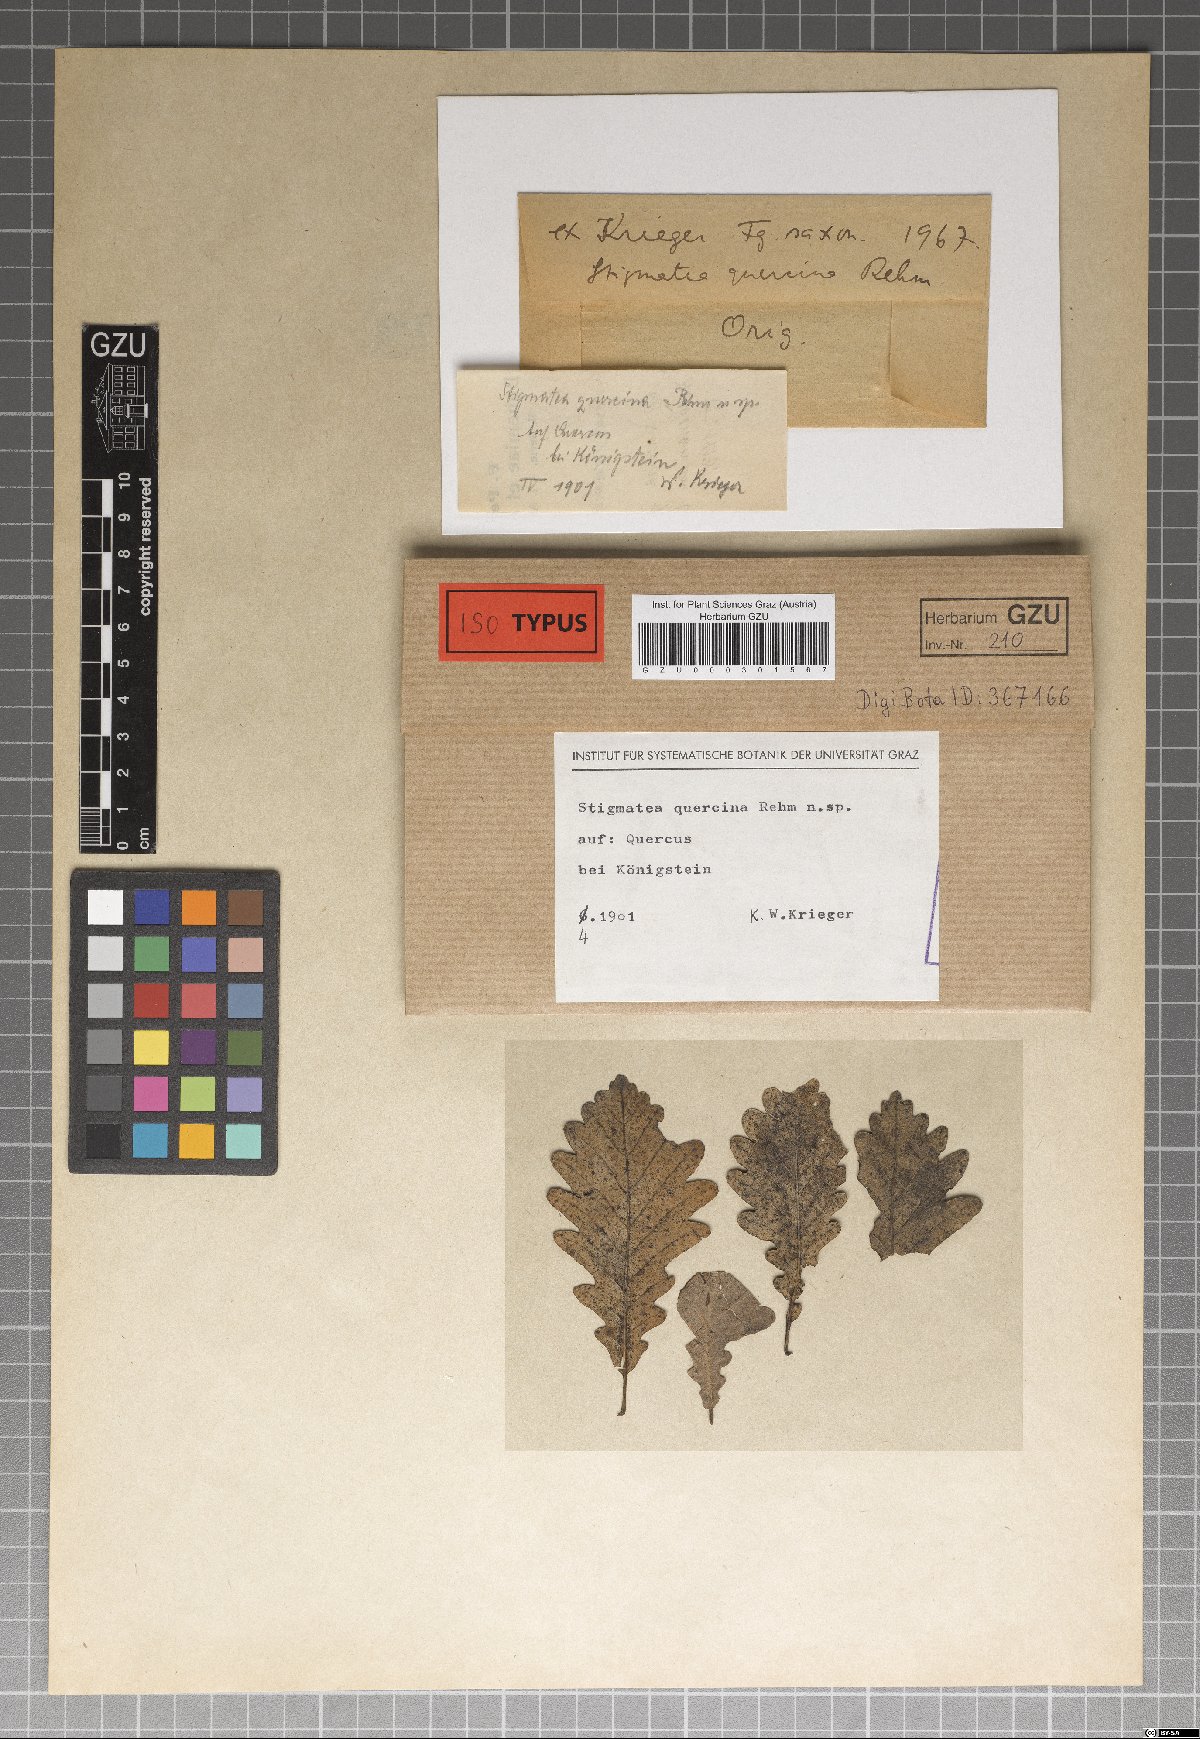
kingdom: Fungi
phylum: Ascomycota
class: Dothideomycetes
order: Mycosphaerellales
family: Mycosphaerellaceae
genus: Mycosphaerella
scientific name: Mycosphaerella epiphylla
